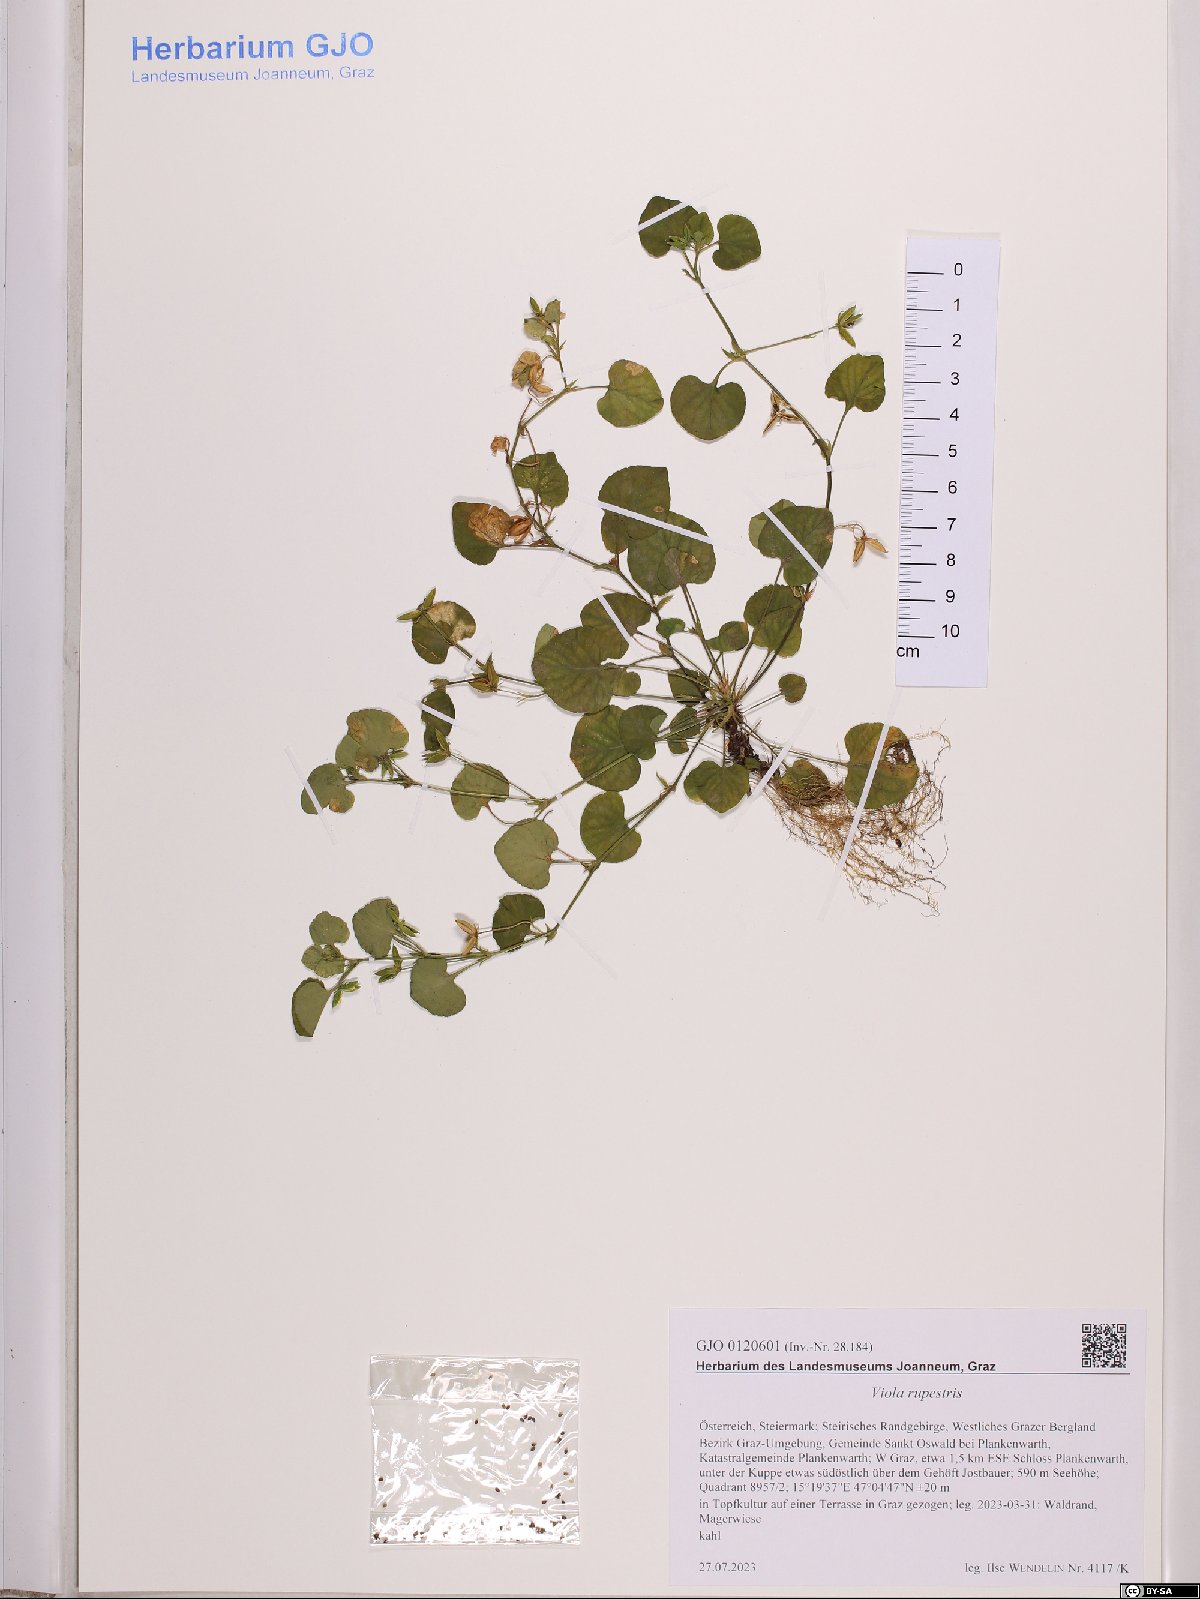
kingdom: Plantae
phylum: Tracheophyta
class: Magnoliopsida
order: Malpighiales
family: Violaceae
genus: Viola
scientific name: Viola rupestris
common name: Teesdale violet
